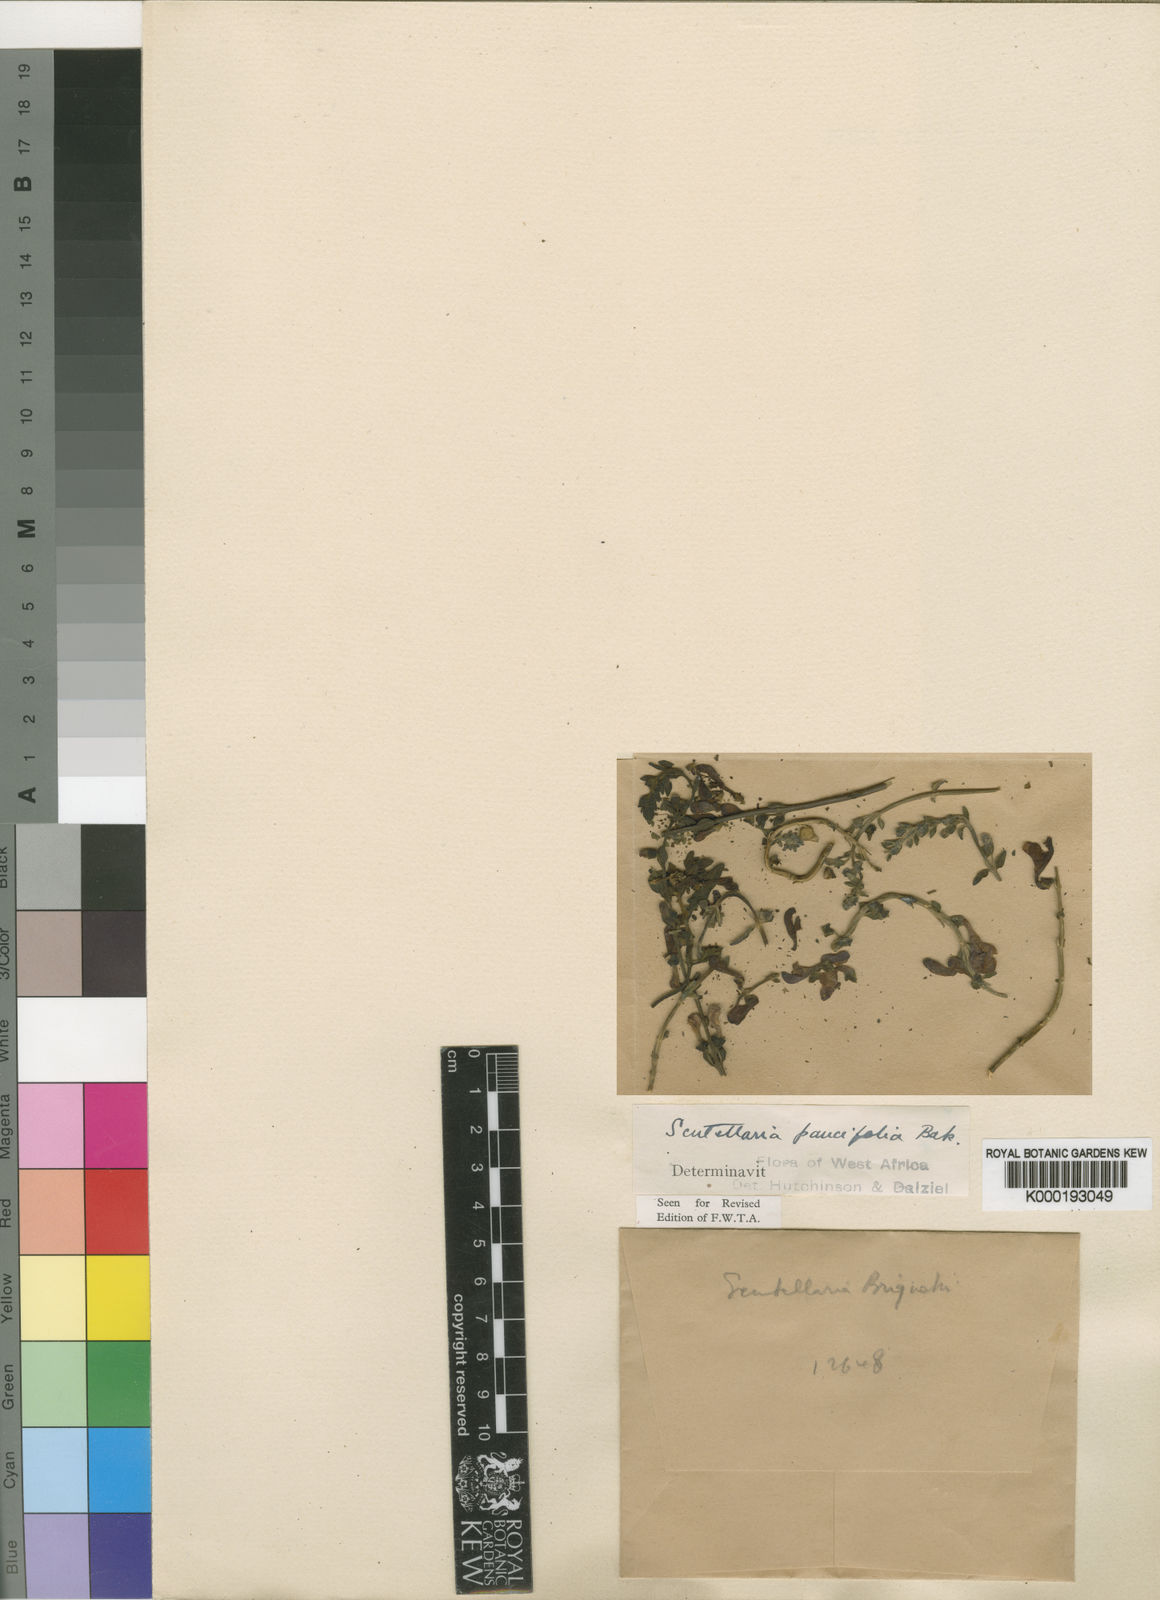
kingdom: Plantae
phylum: Tracheophyta
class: Magnoliopsida
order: Lamiales
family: Lamiaceae
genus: Scutellaria
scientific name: Scutellaria schweinfurthii
